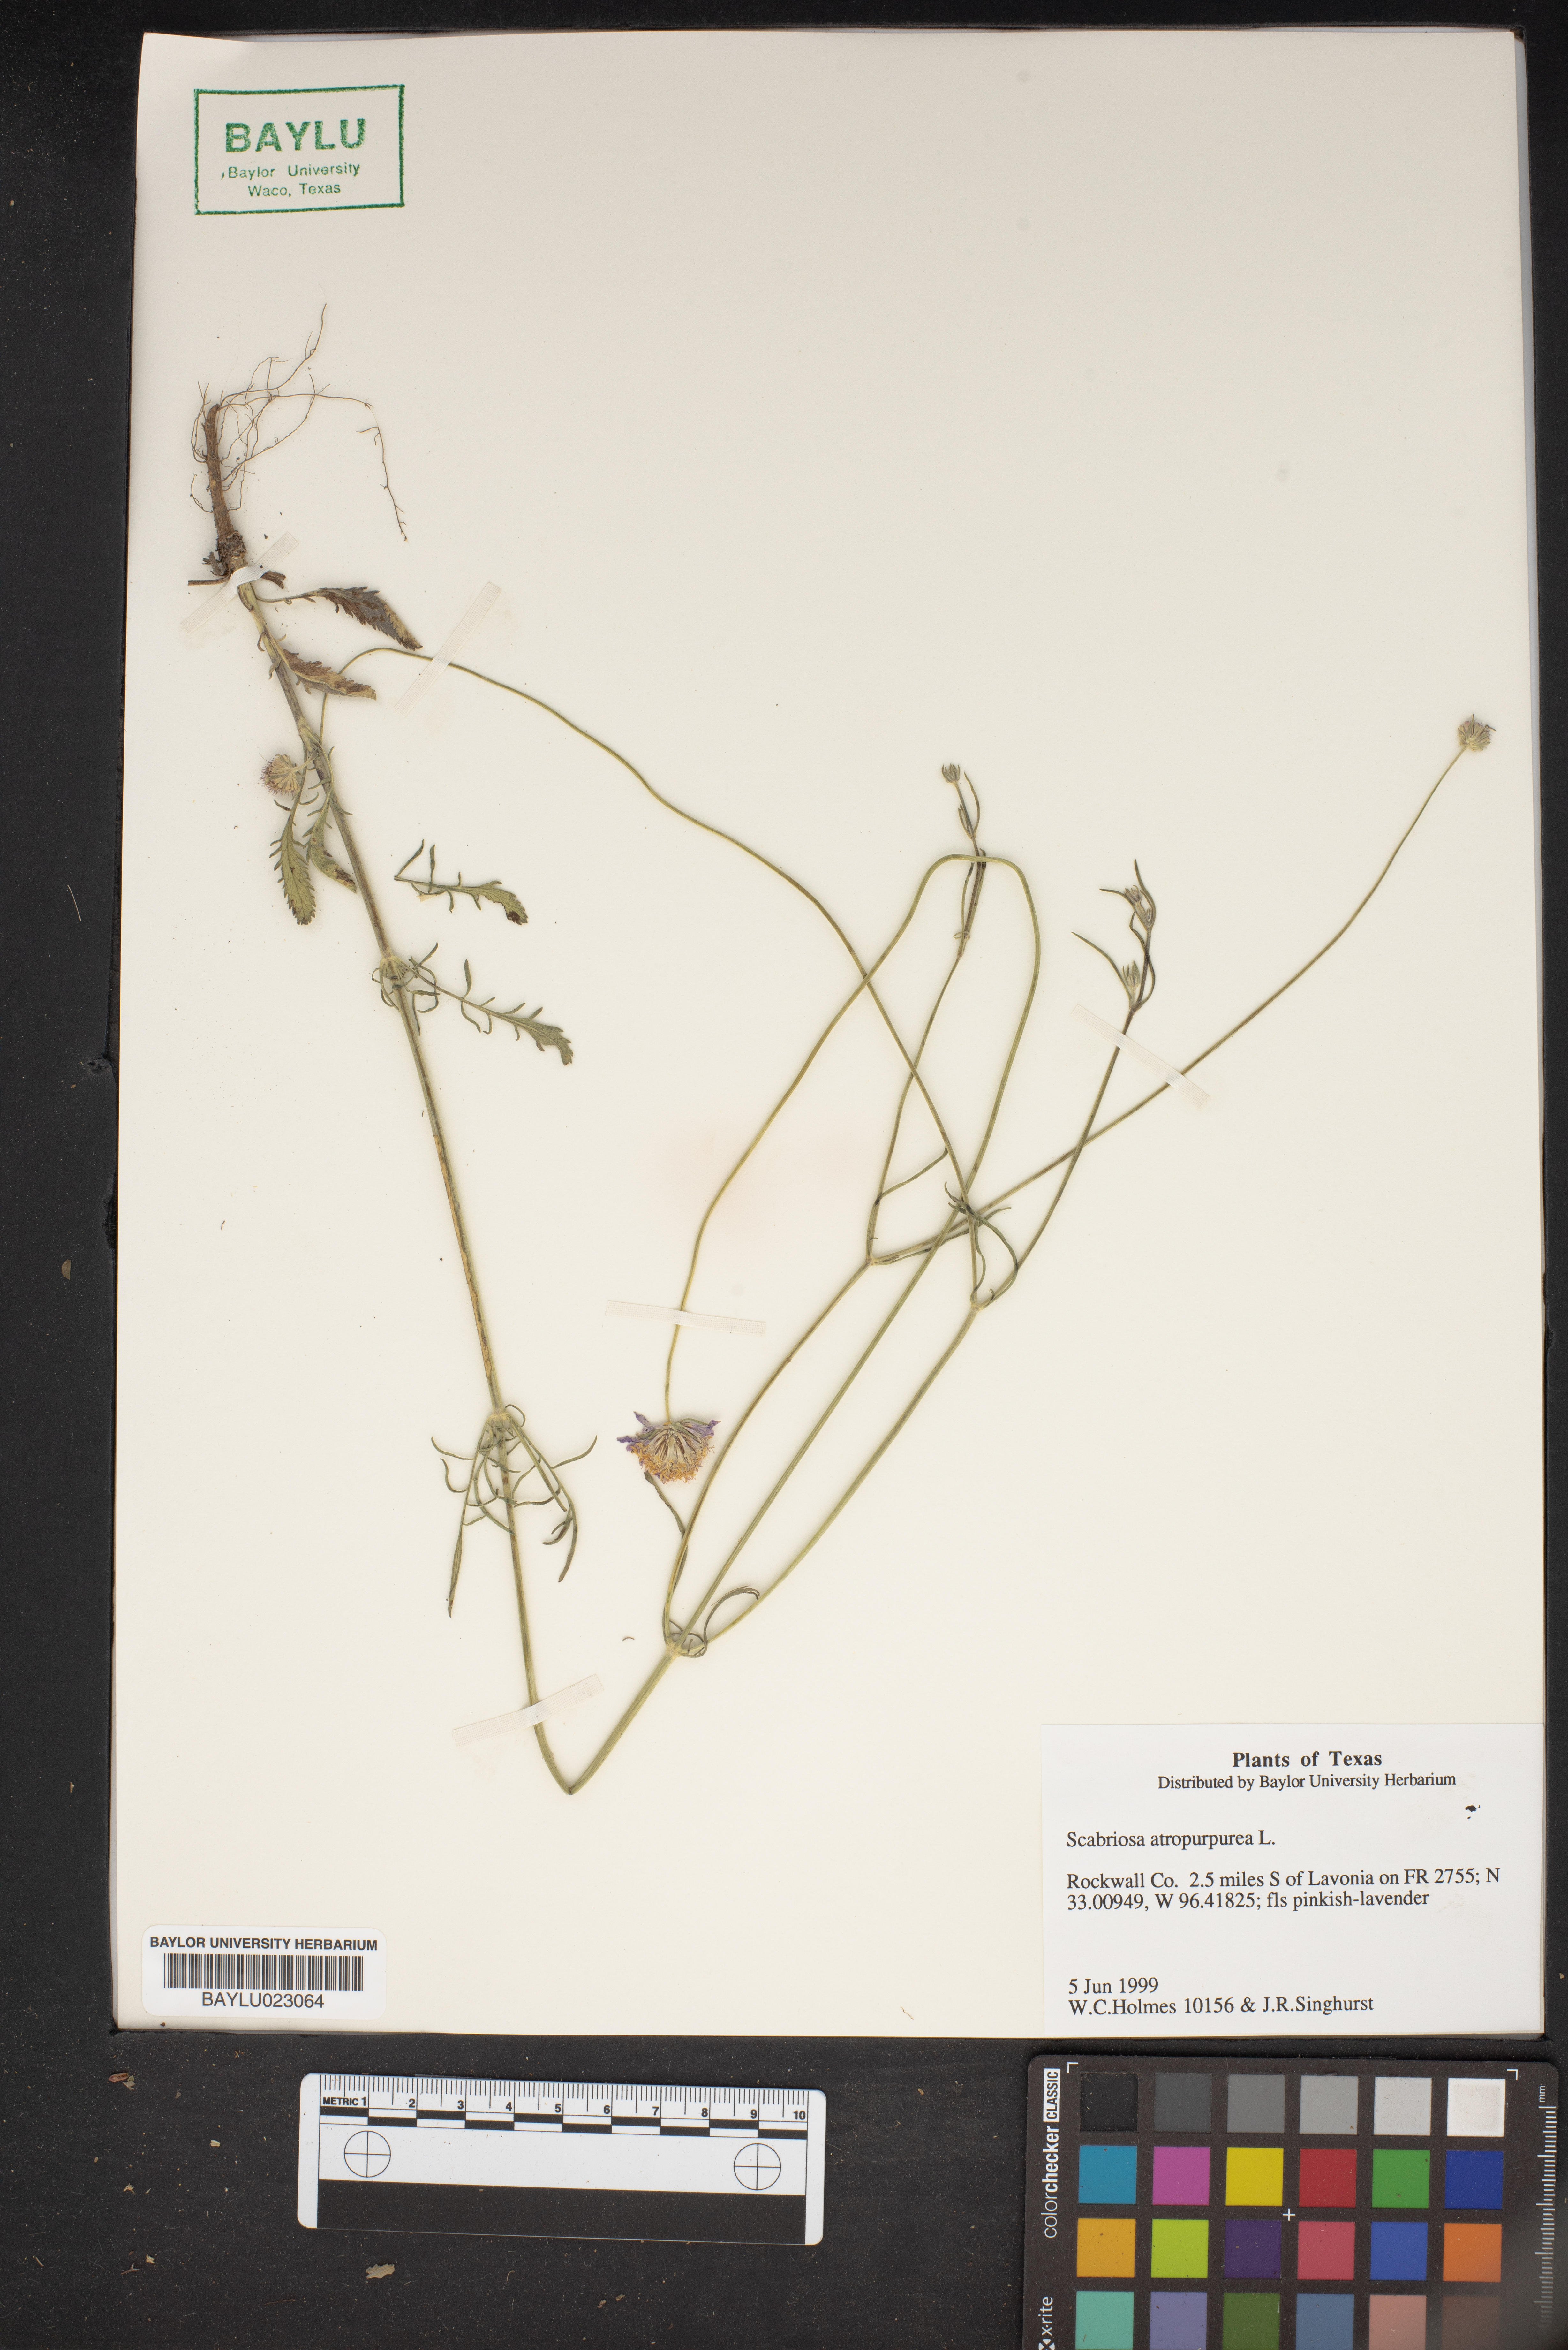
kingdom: Plantae
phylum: Tracheophyta
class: Magnoliopsida
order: Dipsacales
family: Caprifoliaceae
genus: Sixalix
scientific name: Sixalix atropurpurea
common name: Sweet scabious
